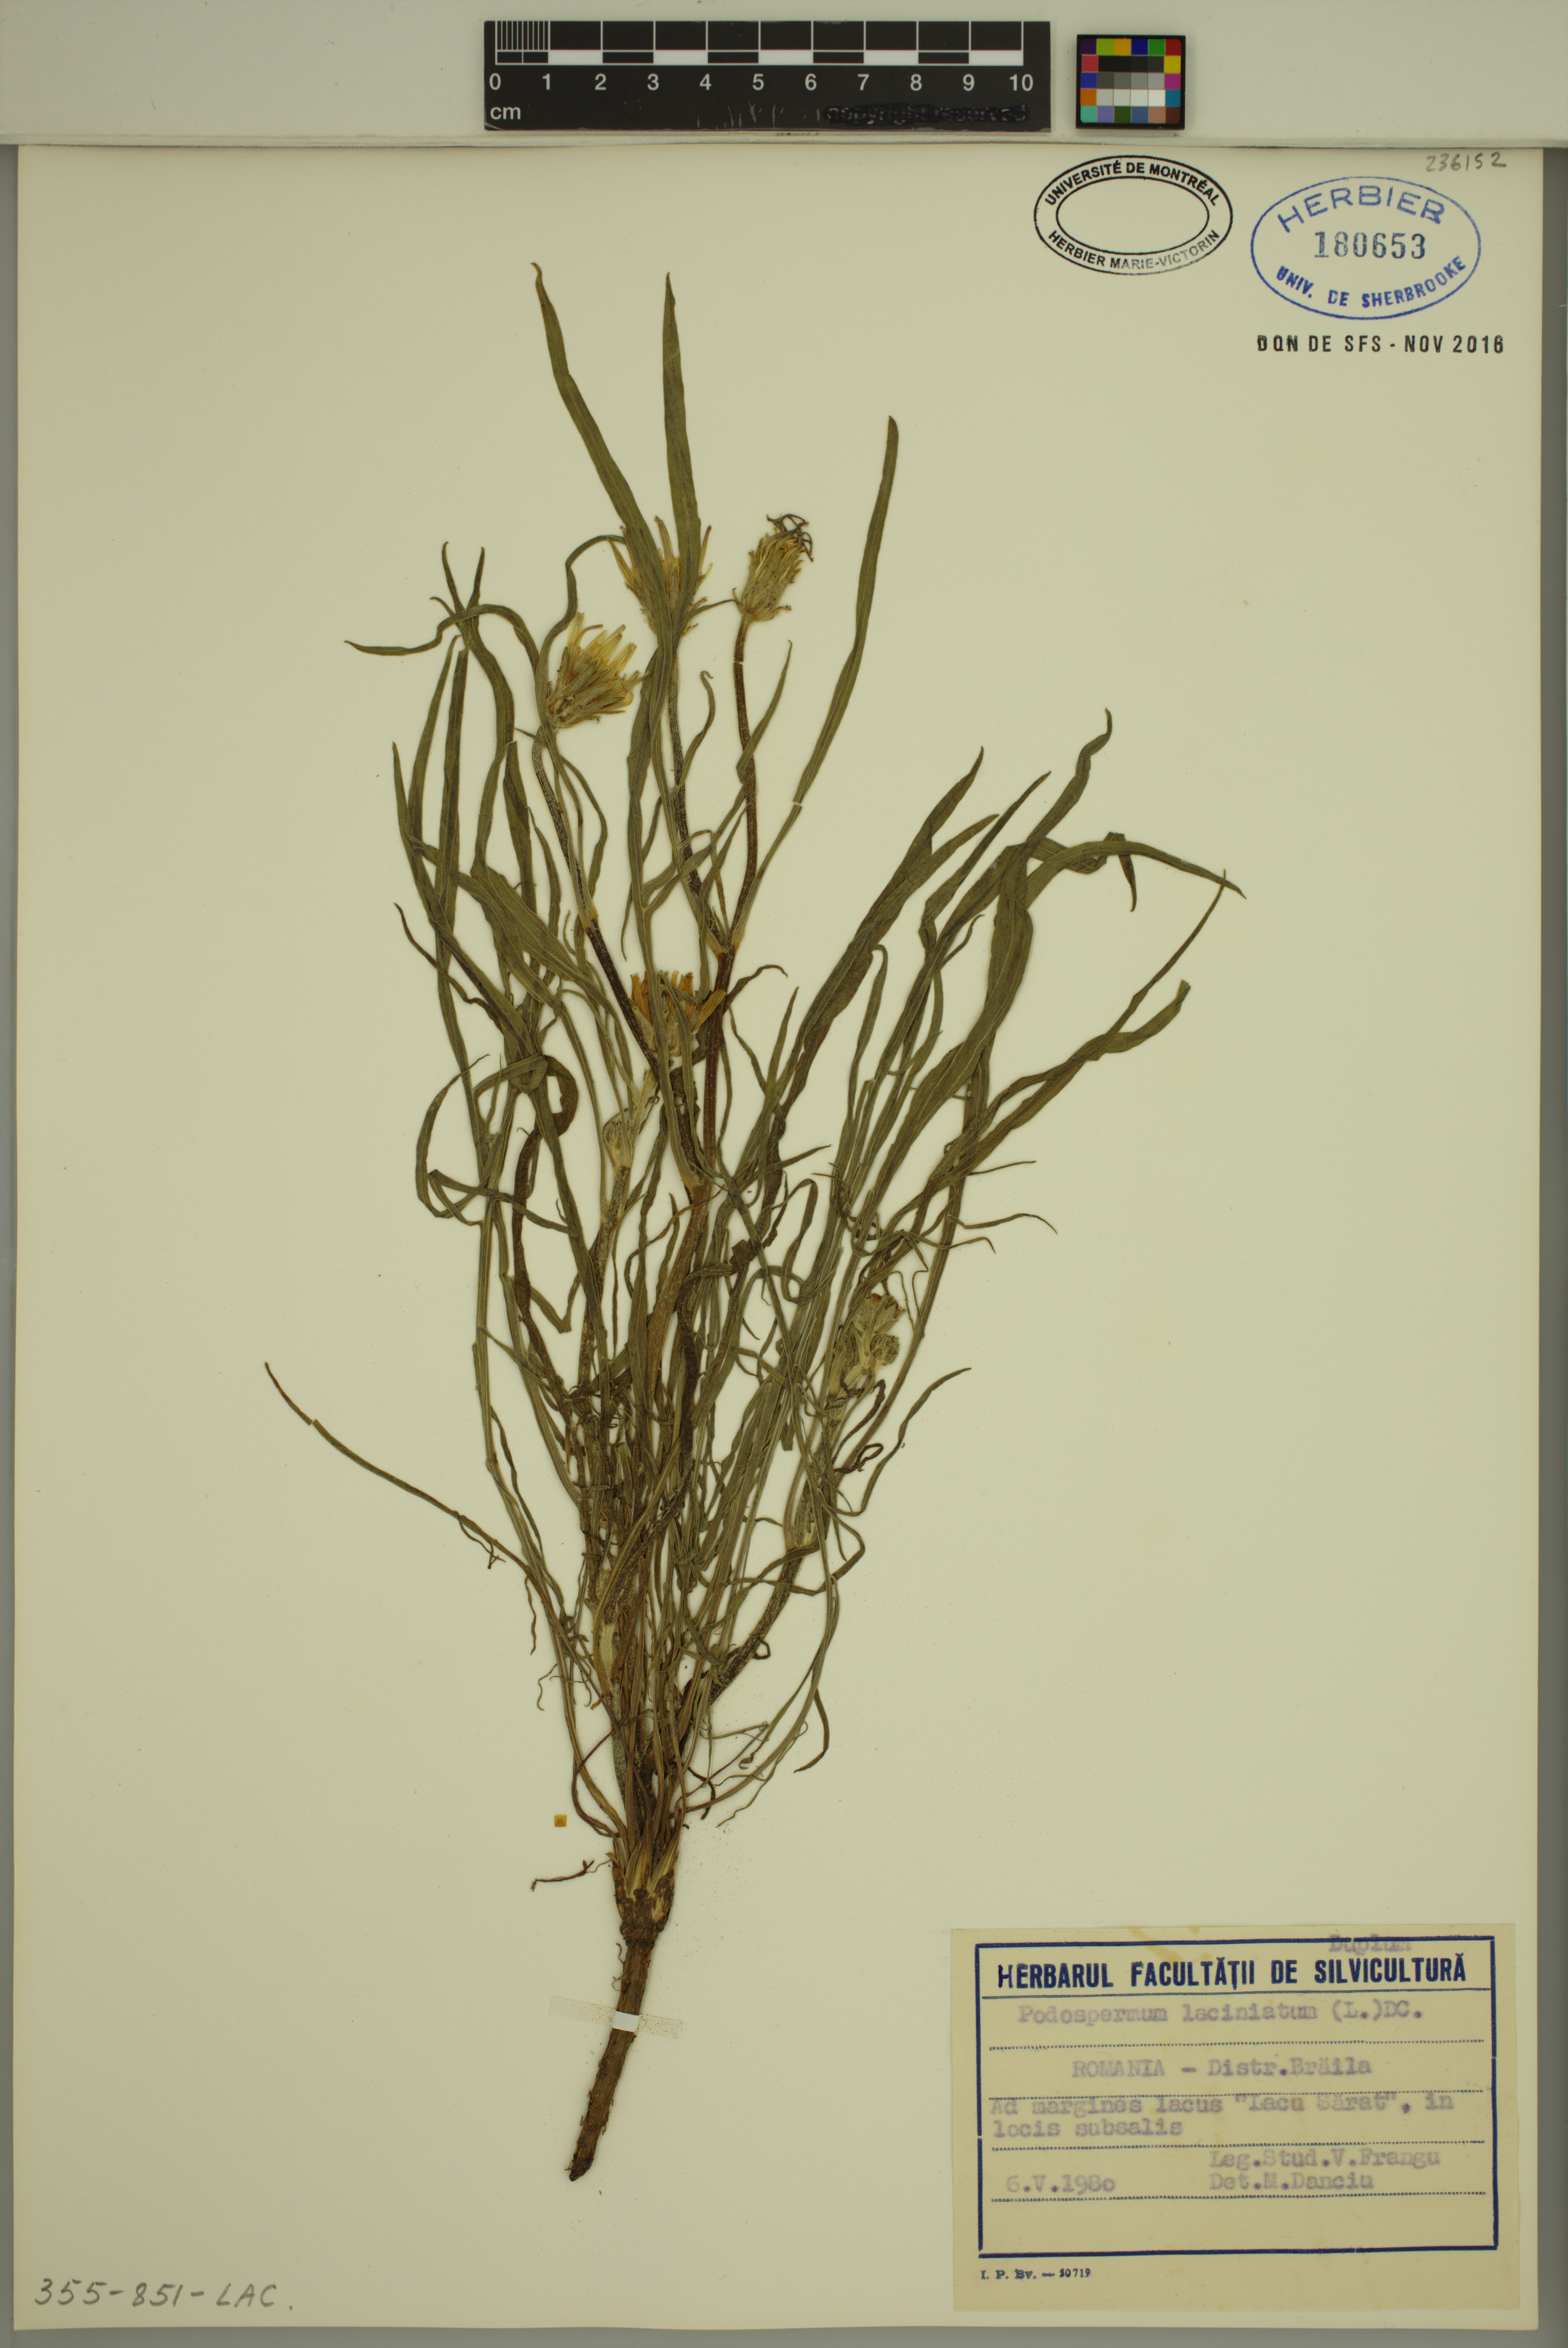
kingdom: Plantae
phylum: Tracheophyta
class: Magnoliopsida
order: Asterales
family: Asteraceae
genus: Scorzonera
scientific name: Scorzonera laciniata
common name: Cutleaf vipergrass
